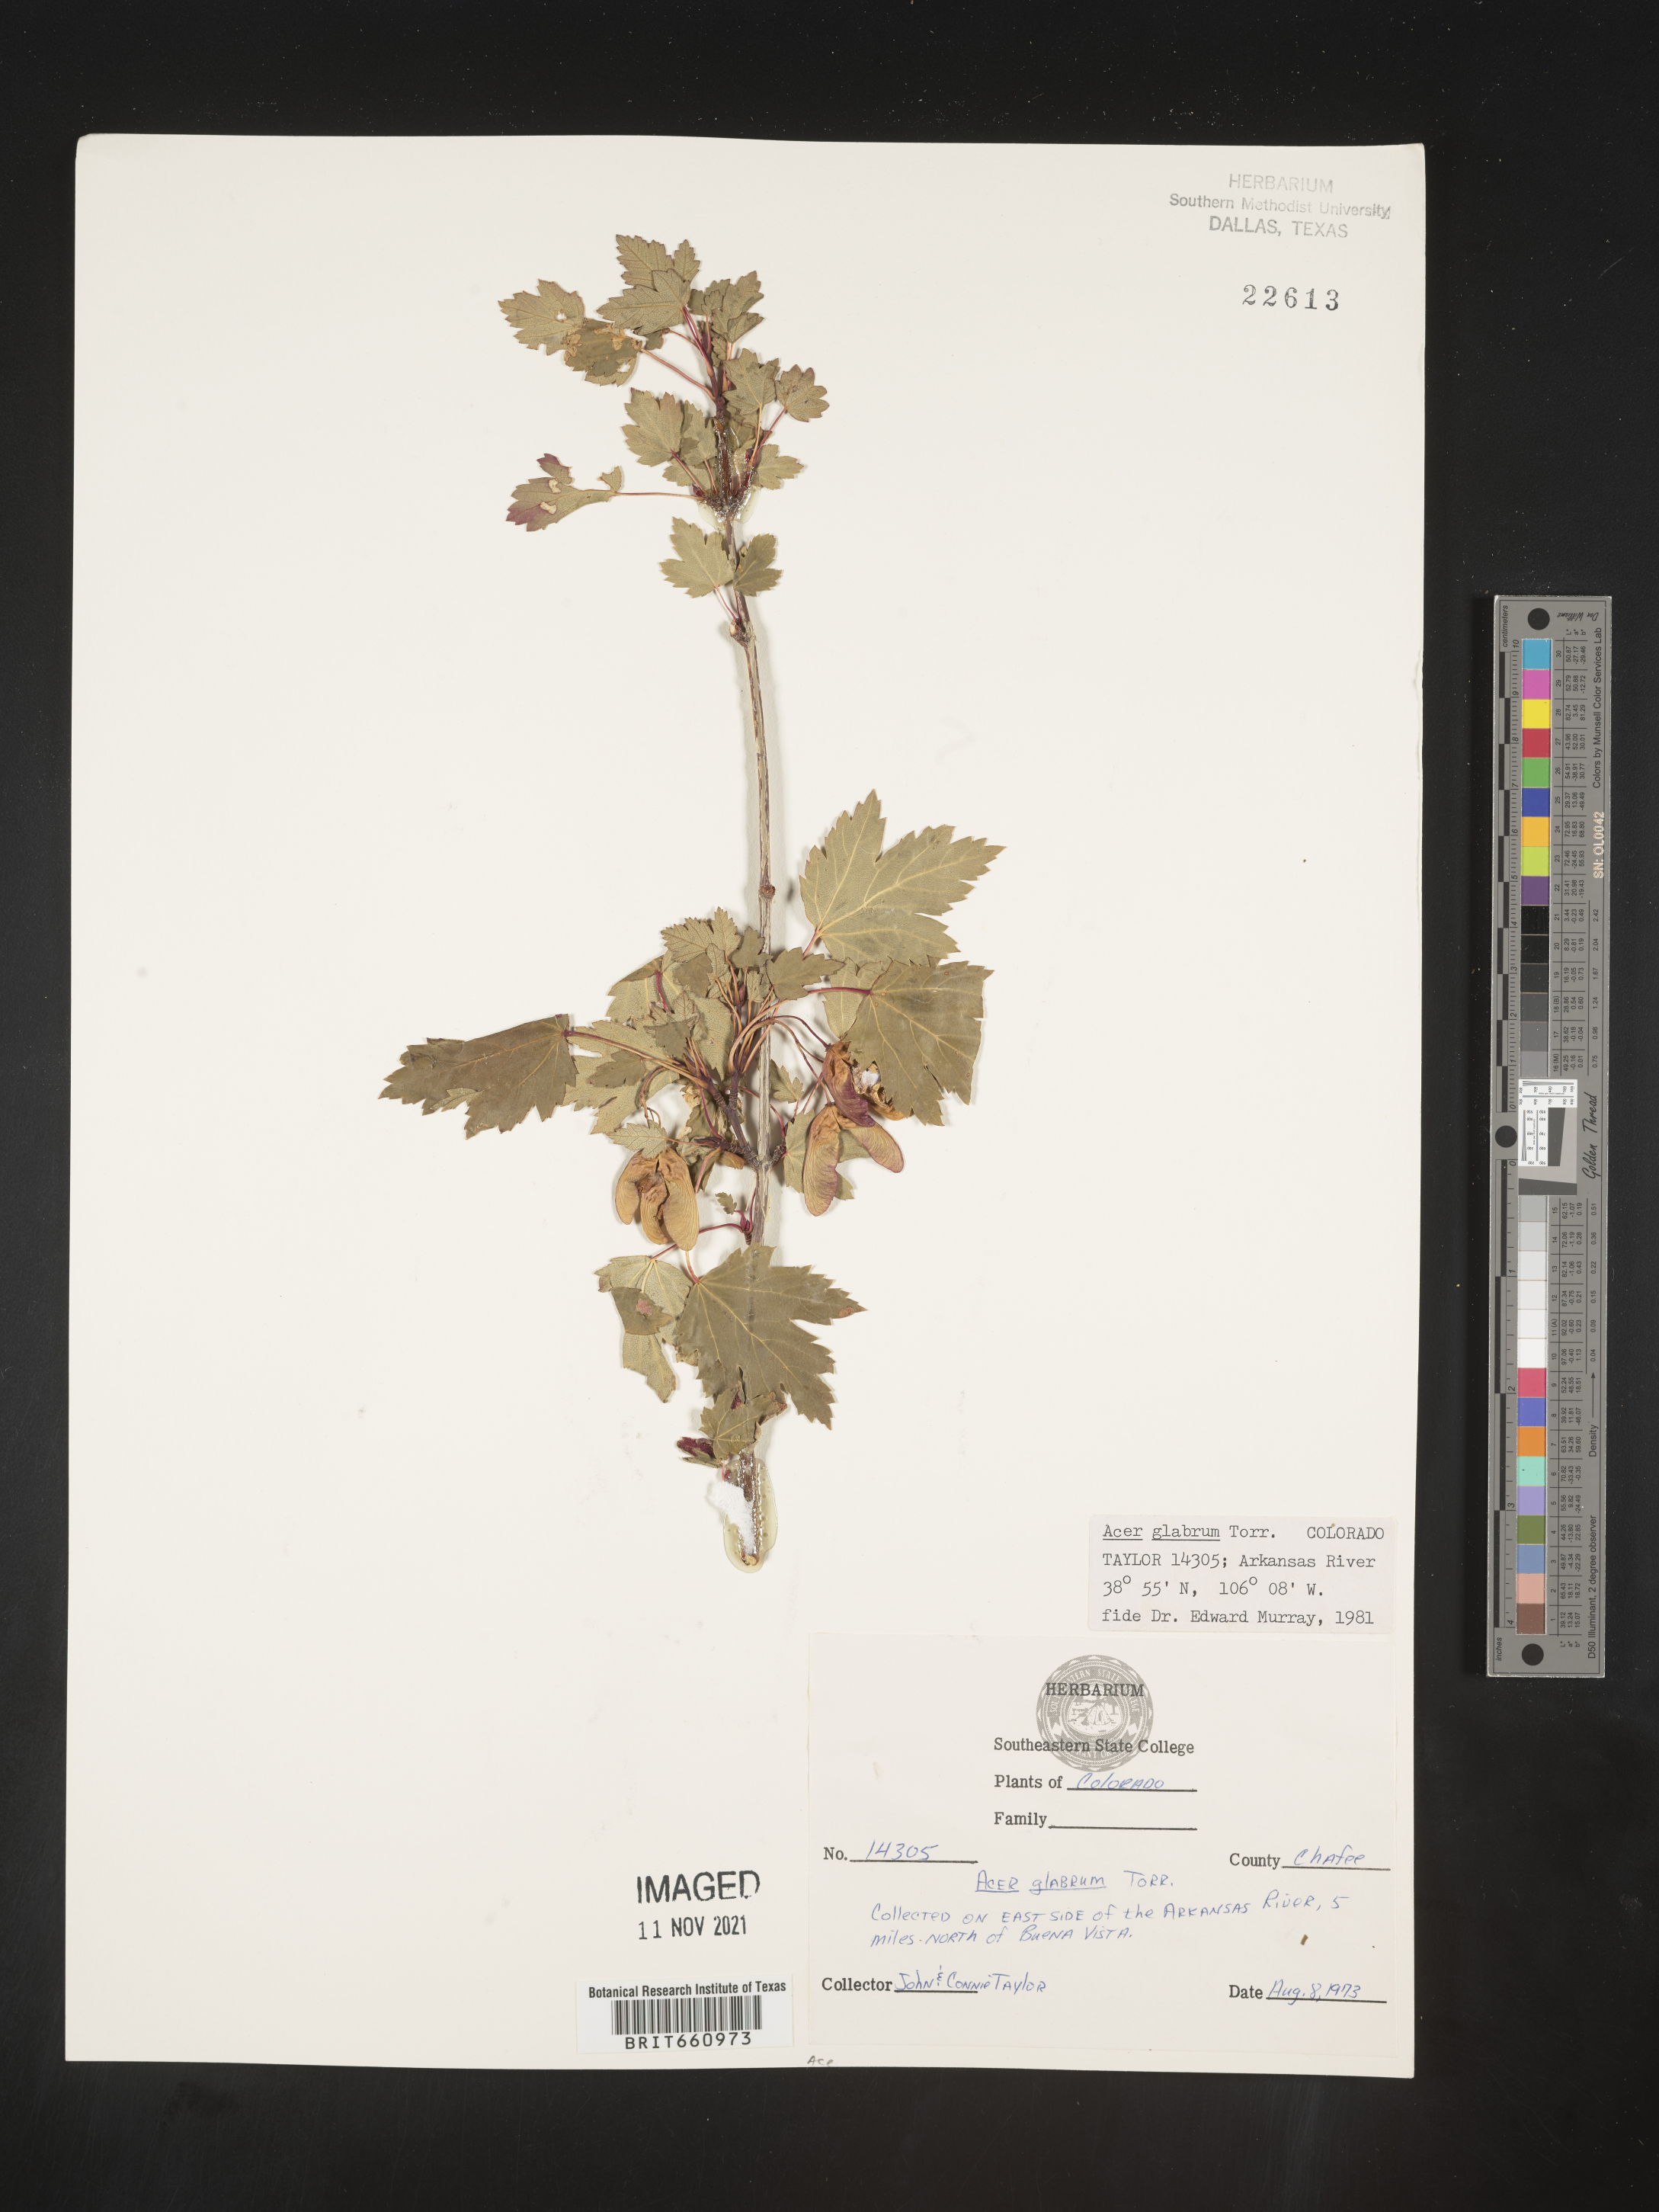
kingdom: Plantae
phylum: Tracheophyta
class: Magnoliopsida
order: Sapindales
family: Sapindaceae
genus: Acer
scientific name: Acer glabrum
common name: Rocky mountain maple
